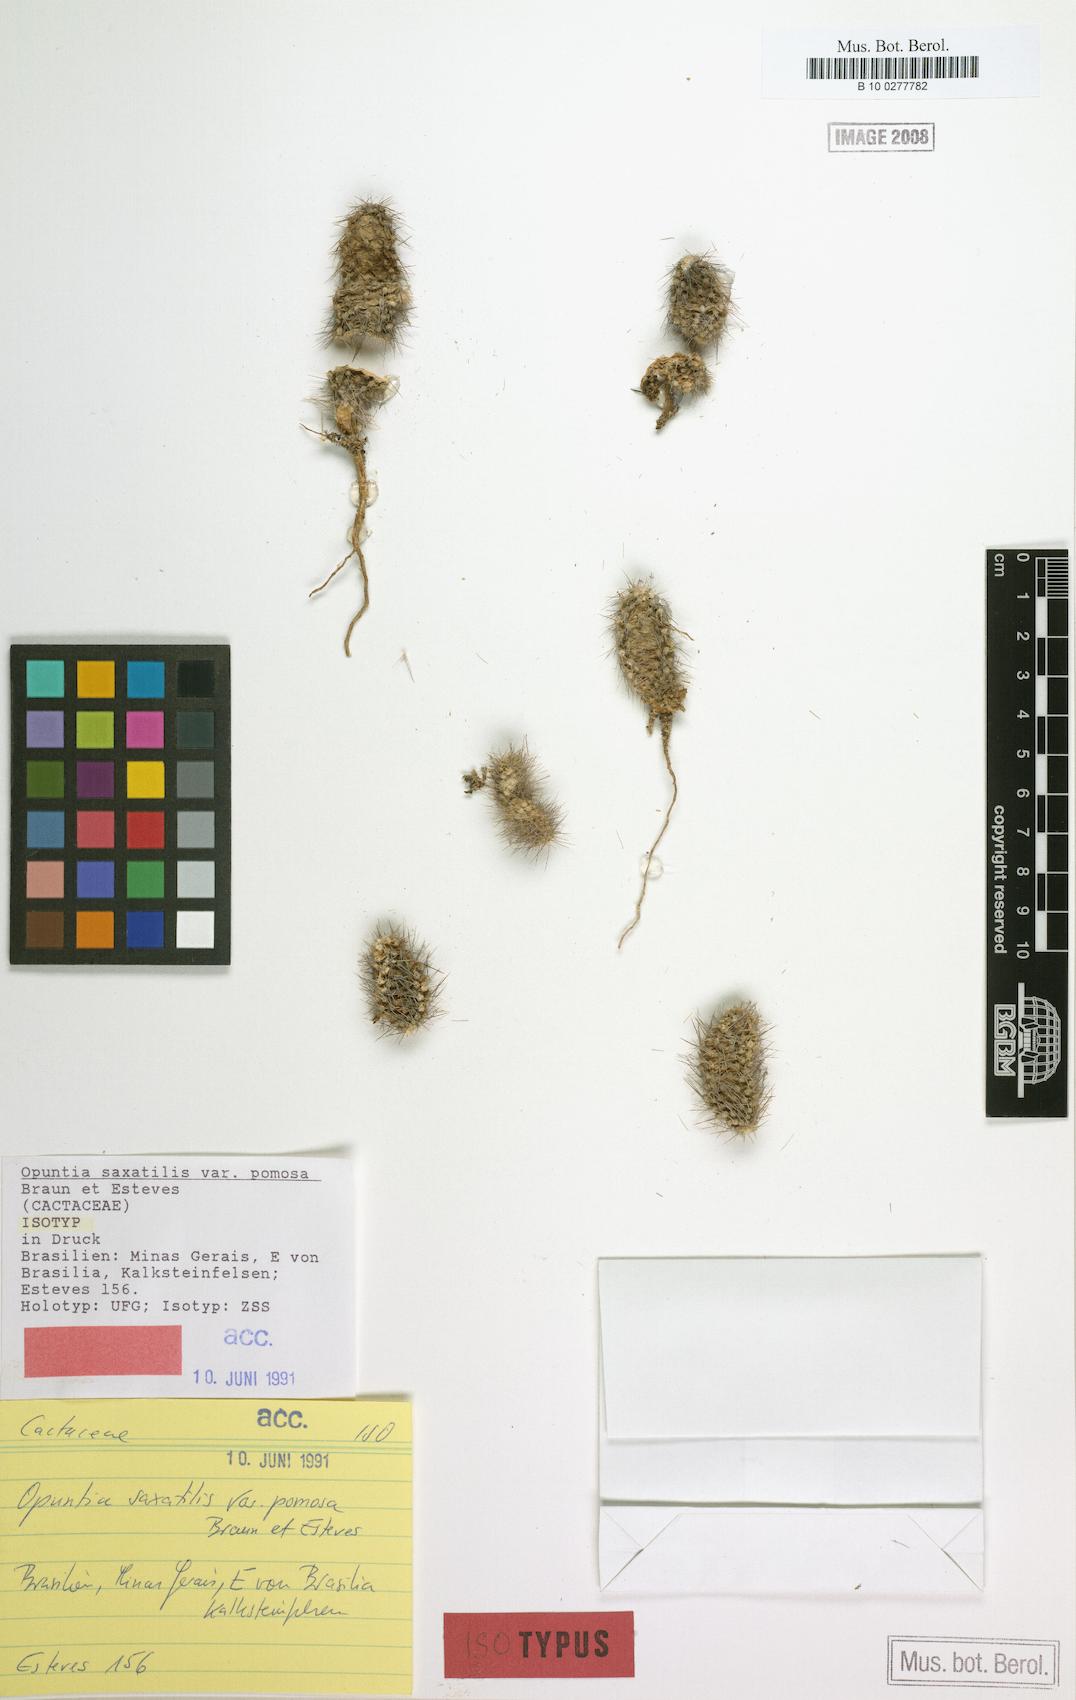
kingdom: Plantae
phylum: Tracheophyta
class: Magnoliopsida
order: Caryophyllales
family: Cactaceae
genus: Tacinga
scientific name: Tacinga saxatilis
